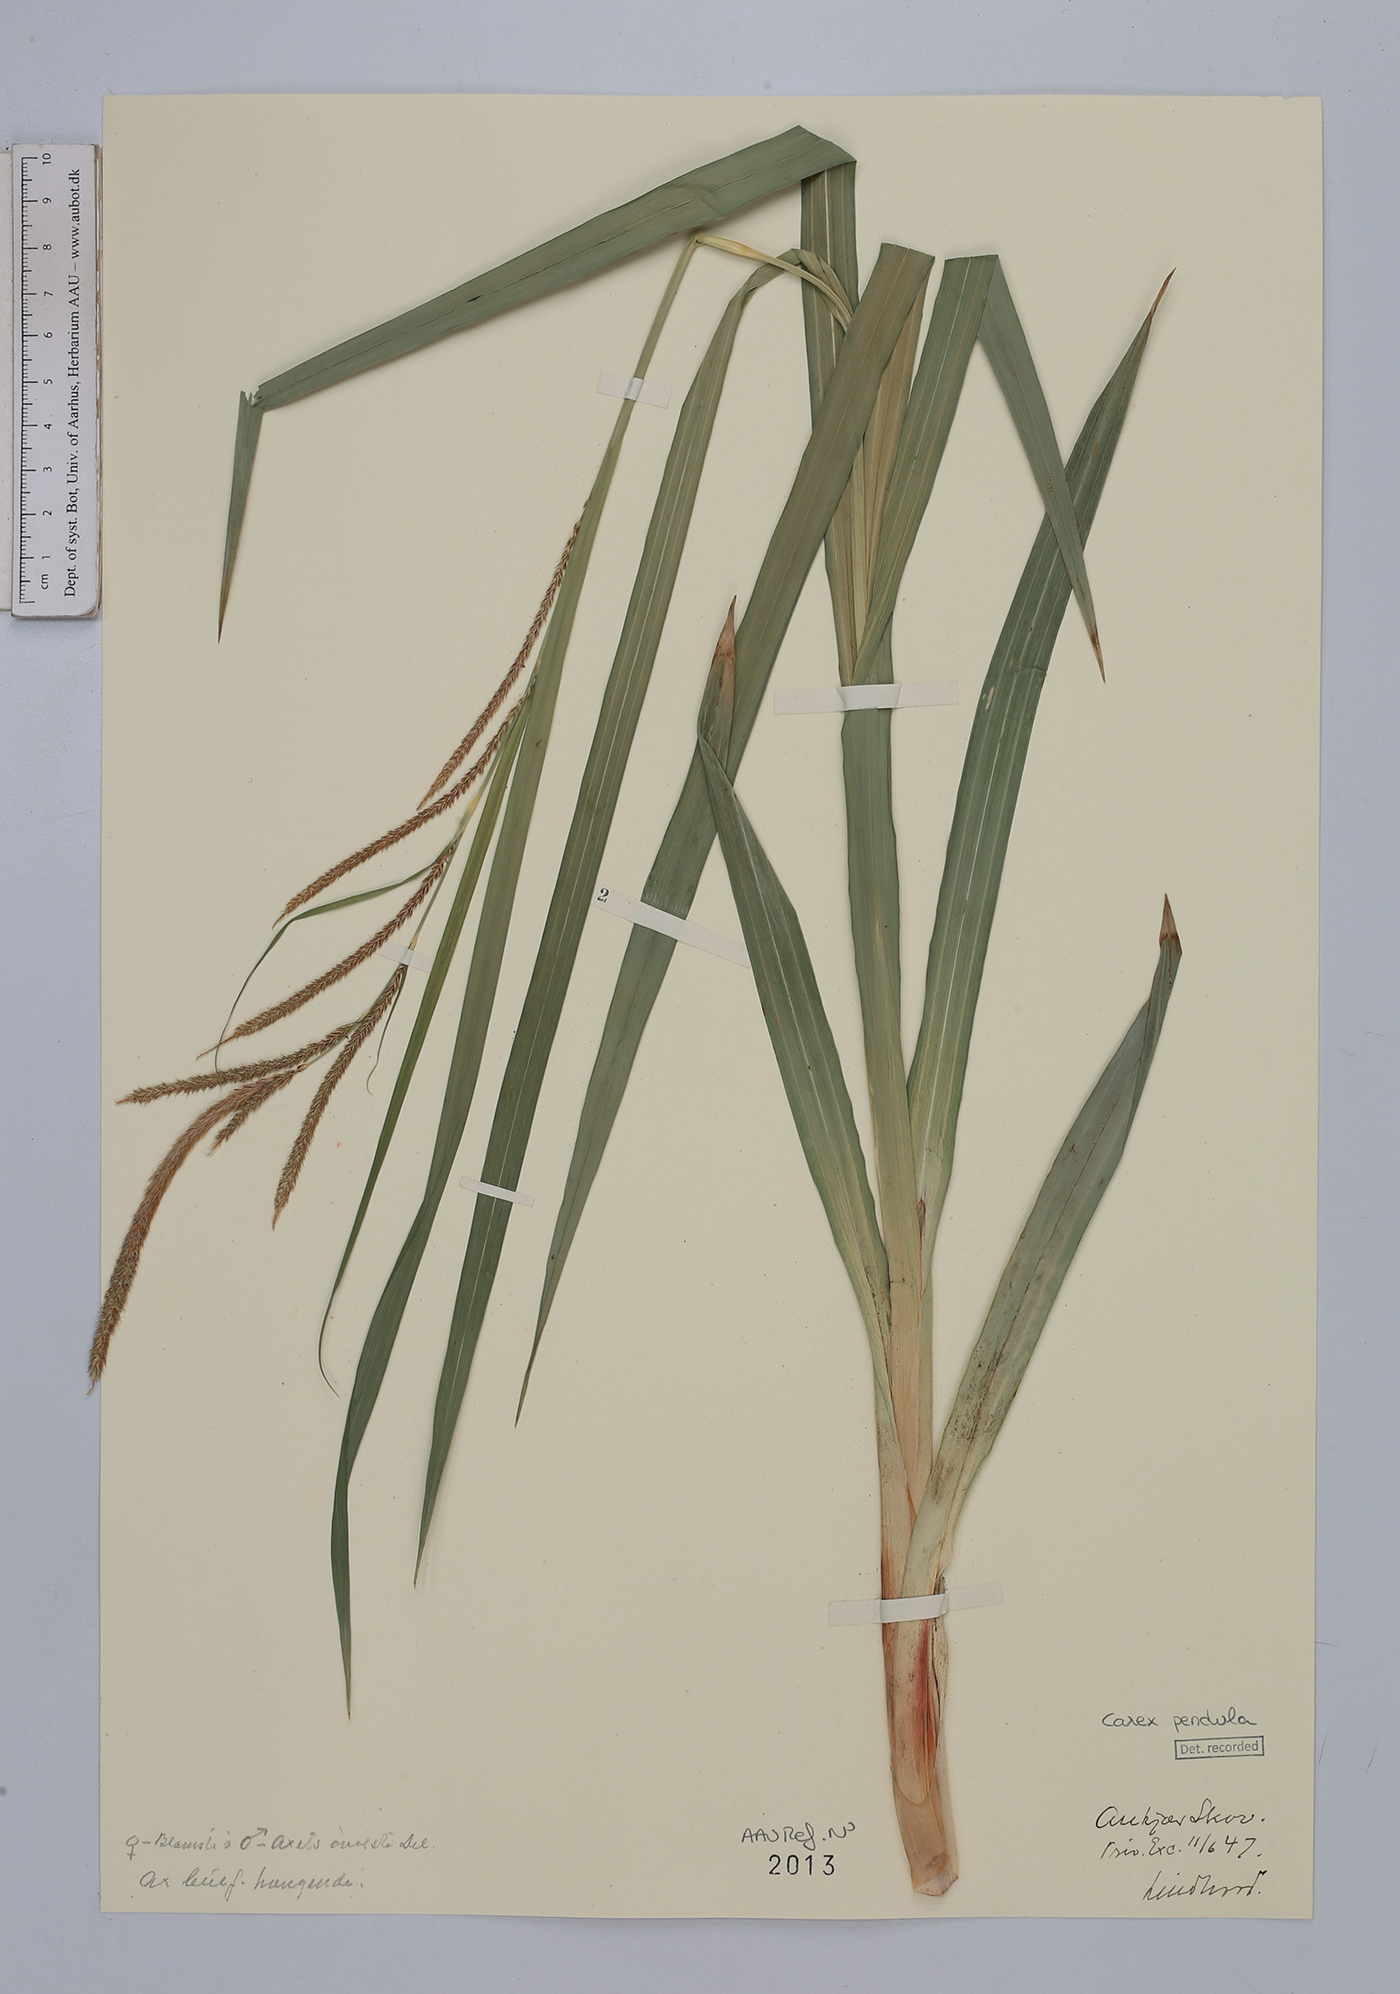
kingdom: Plantae
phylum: Tracheophyta
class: Liliopsida
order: Poales
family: Cyperaceae
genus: Carex
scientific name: Carex pendula
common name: Pendulous sedge
